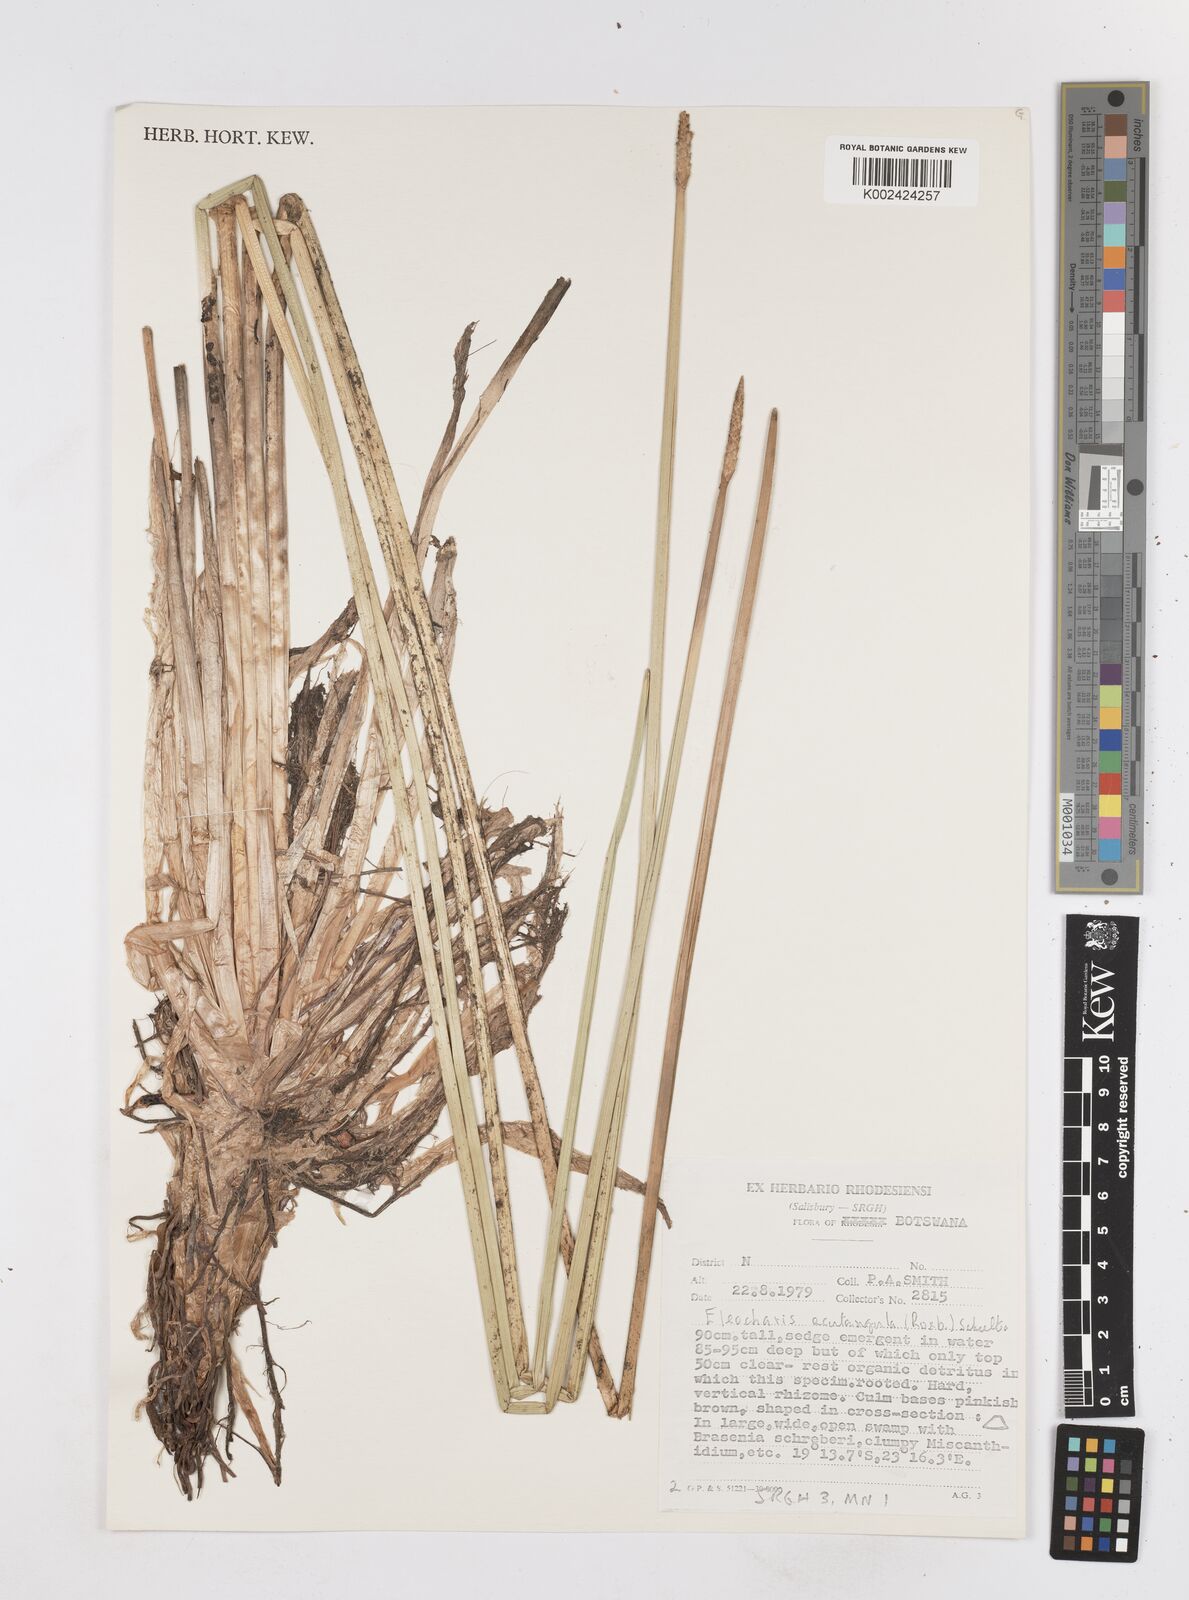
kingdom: Plantae
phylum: Tracheophyta
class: Liliopsida
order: Poales
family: Cyperaceae
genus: Eleocharis
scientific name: Eleocharis acutangula
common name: Acute spikerush
